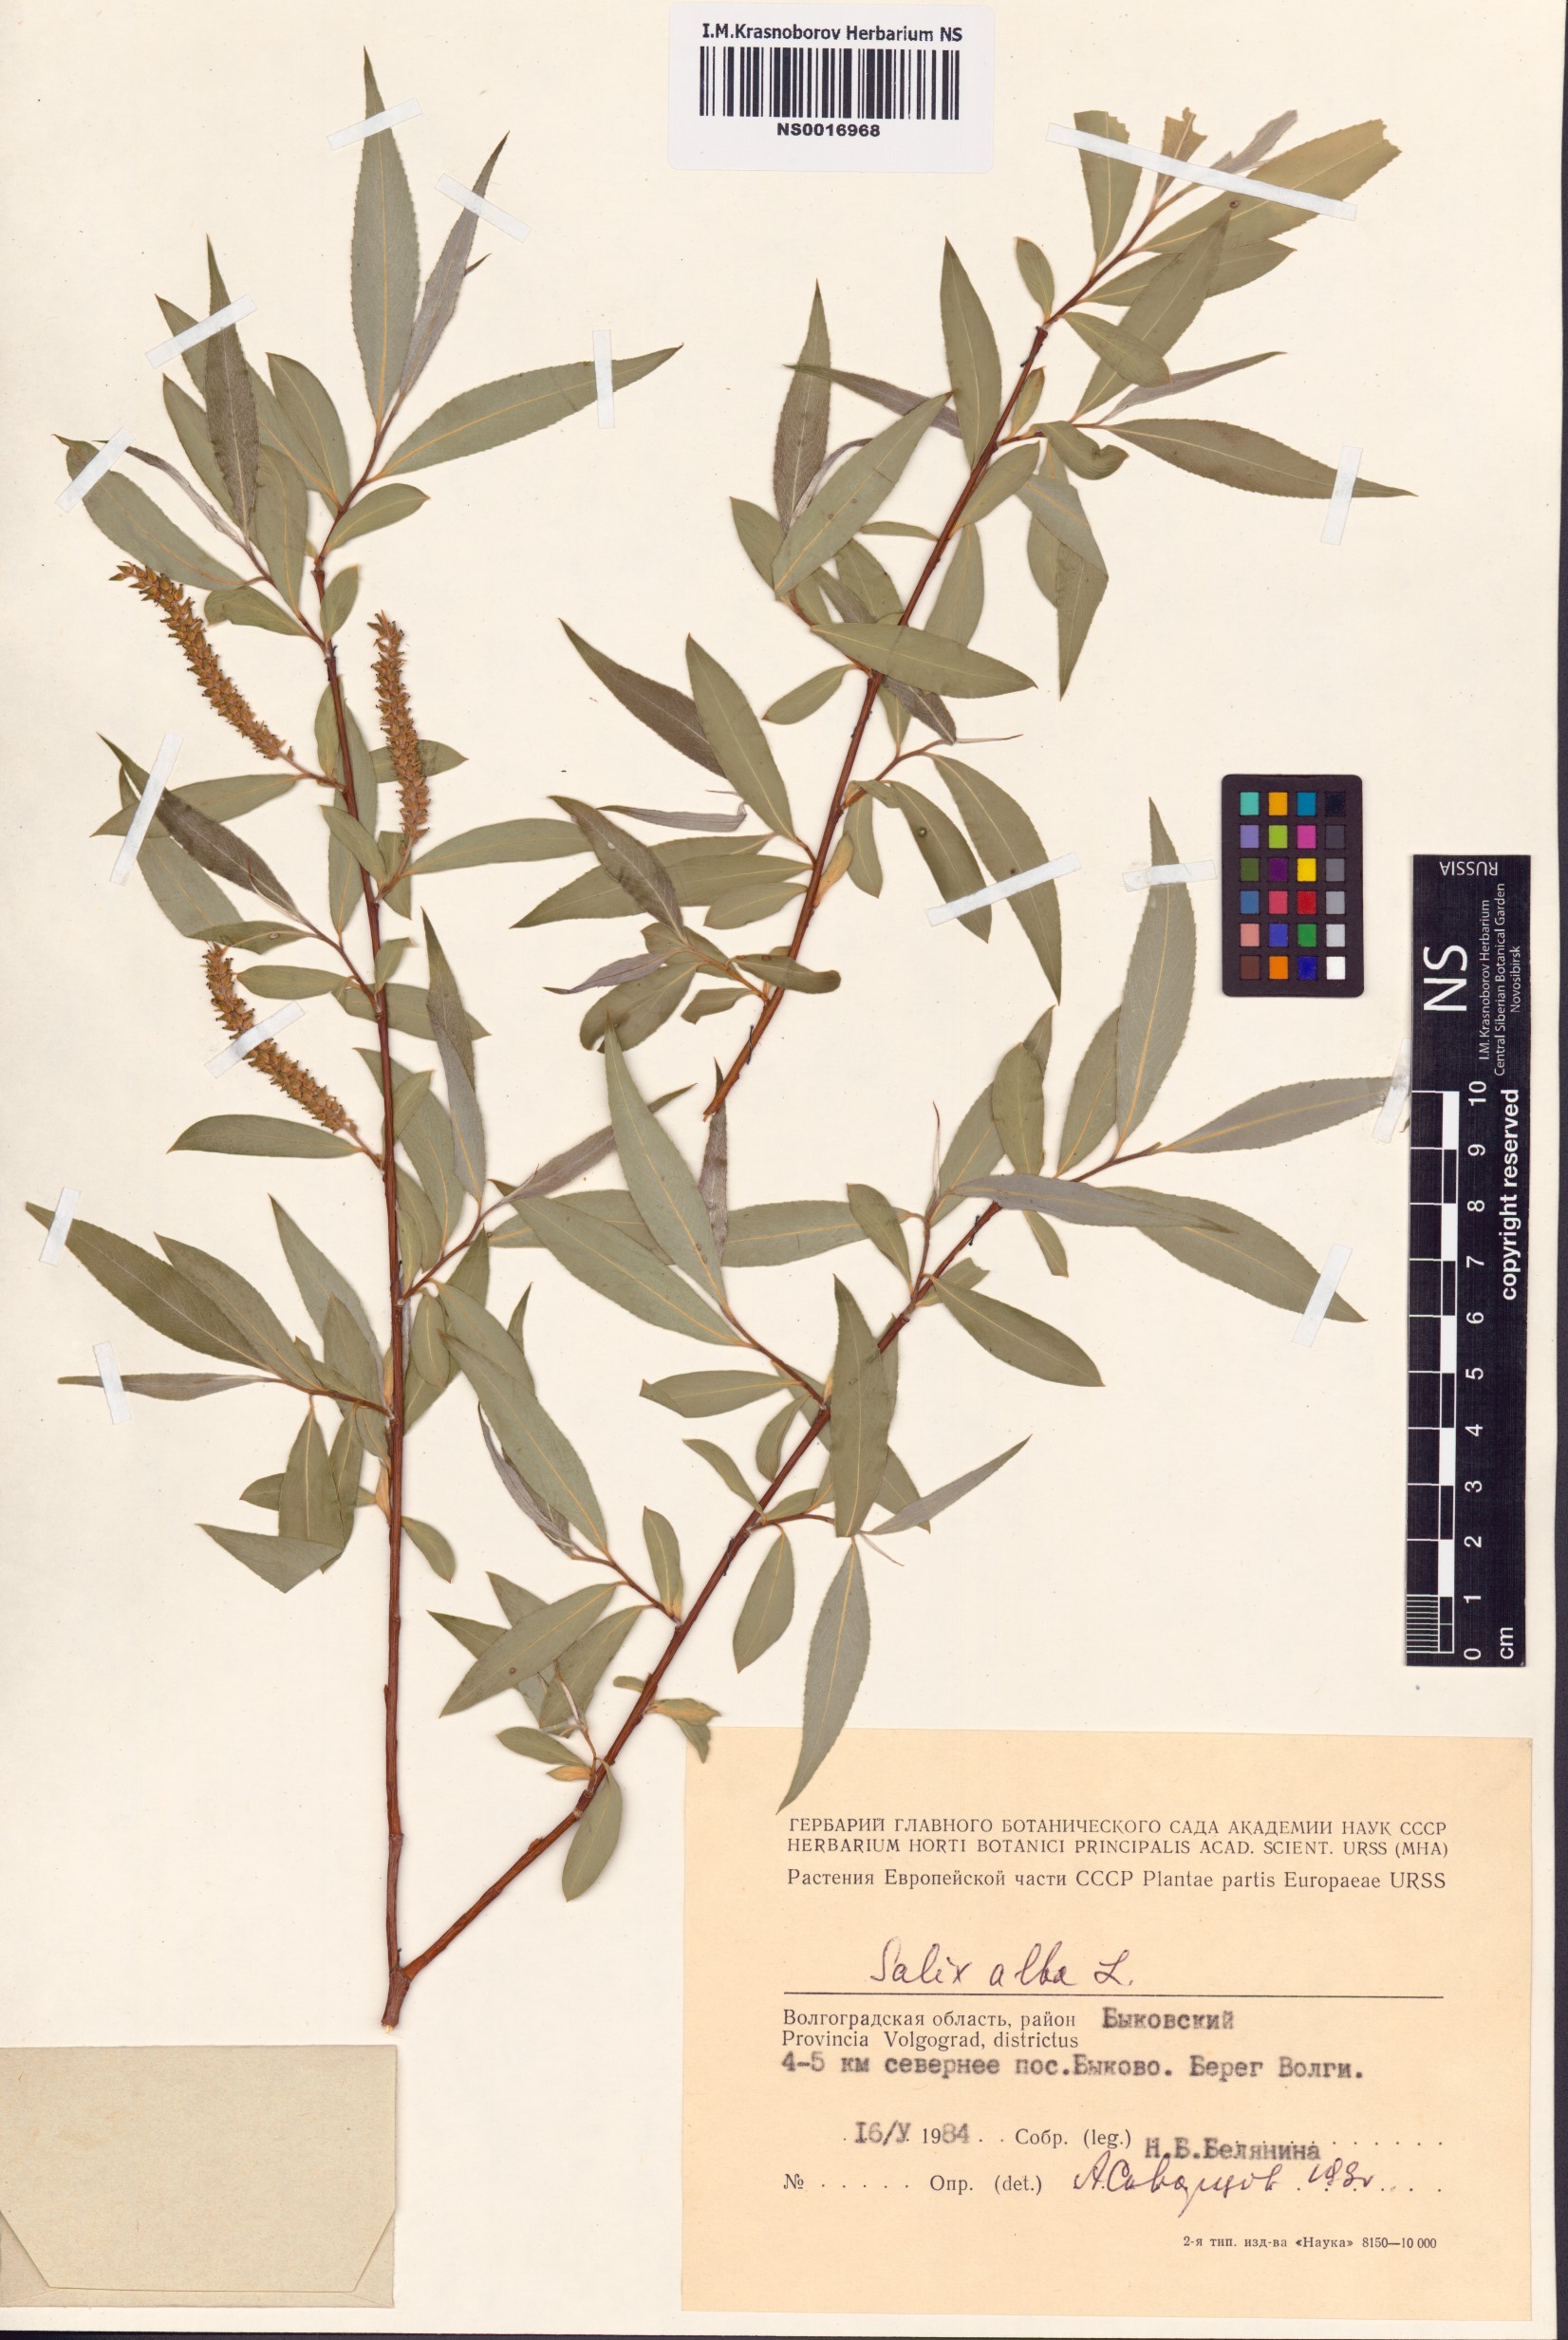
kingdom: Plantae
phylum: Tracheophyta
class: Magnoliopsida
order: Malpighiales
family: Salicaceae
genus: Salix
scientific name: Salix alba
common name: White willow
